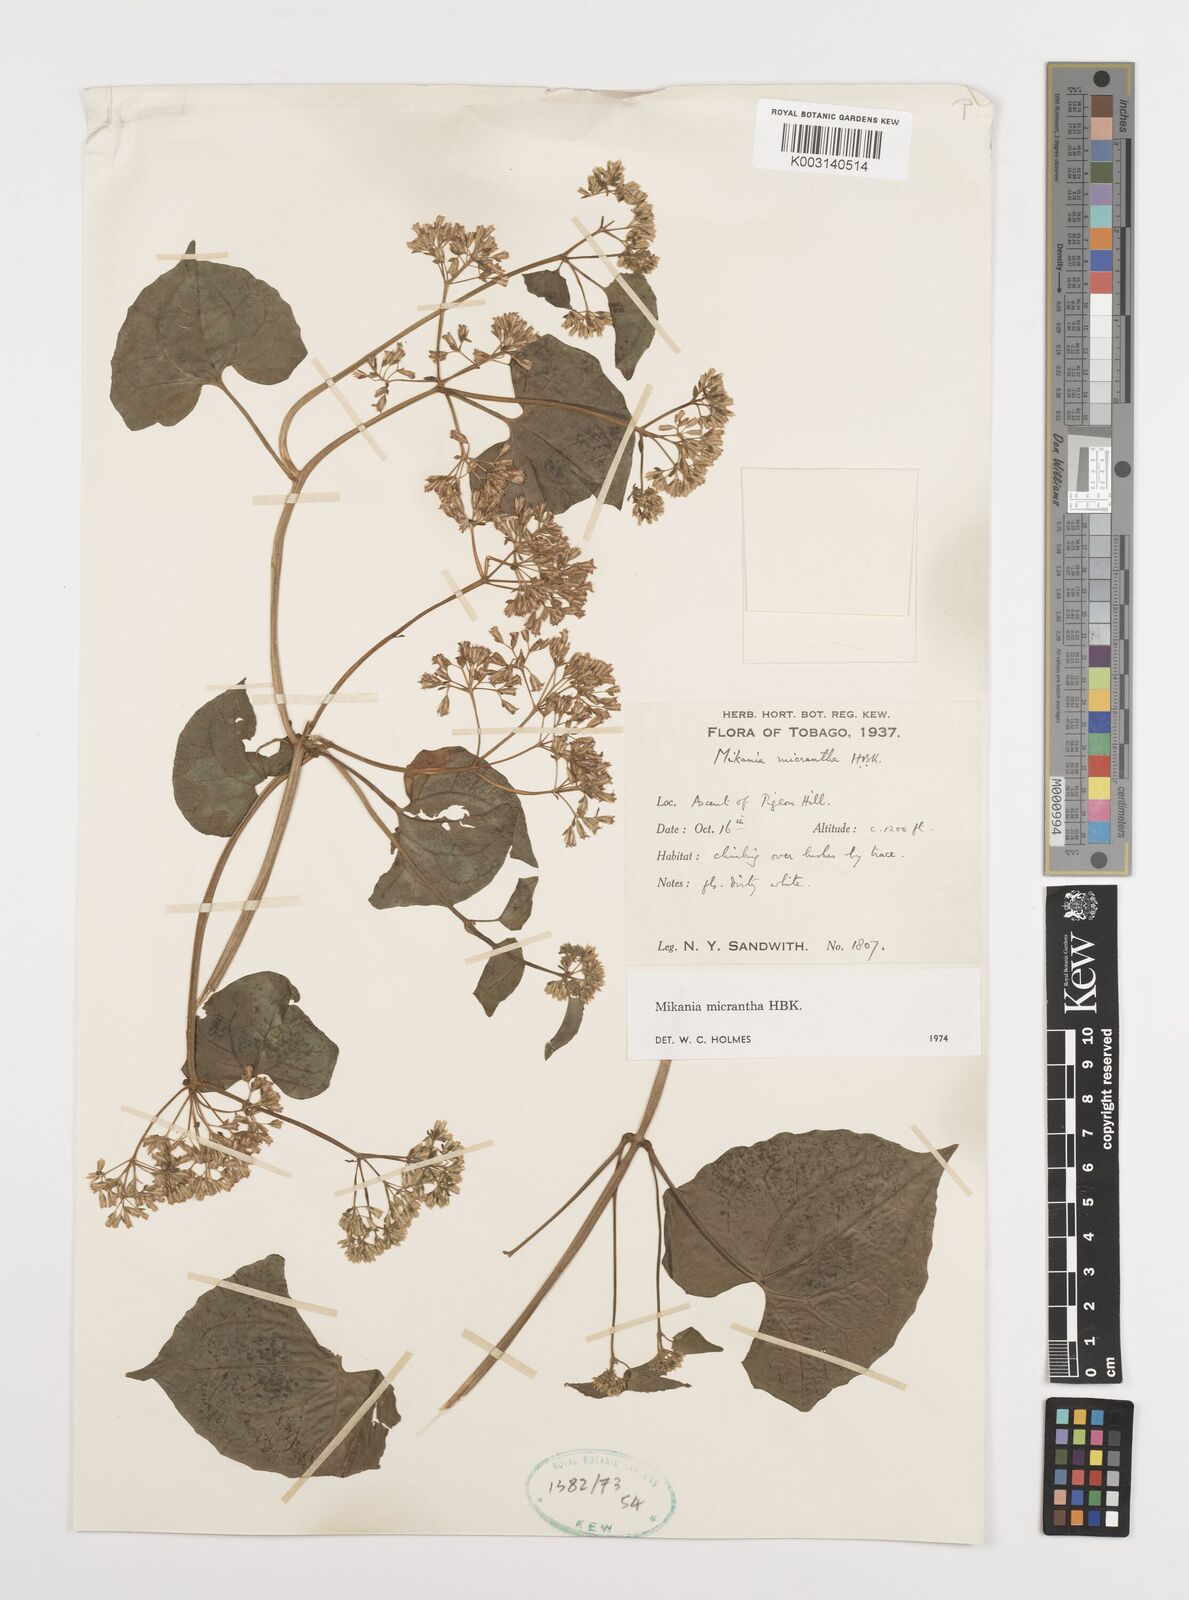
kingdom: Plantae
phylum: Tracheophyta
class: Magnoliopsida
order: Asterales
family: Asteraceae
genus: Mikania
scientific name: Mikania micrantha
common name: Mile-a-minute
